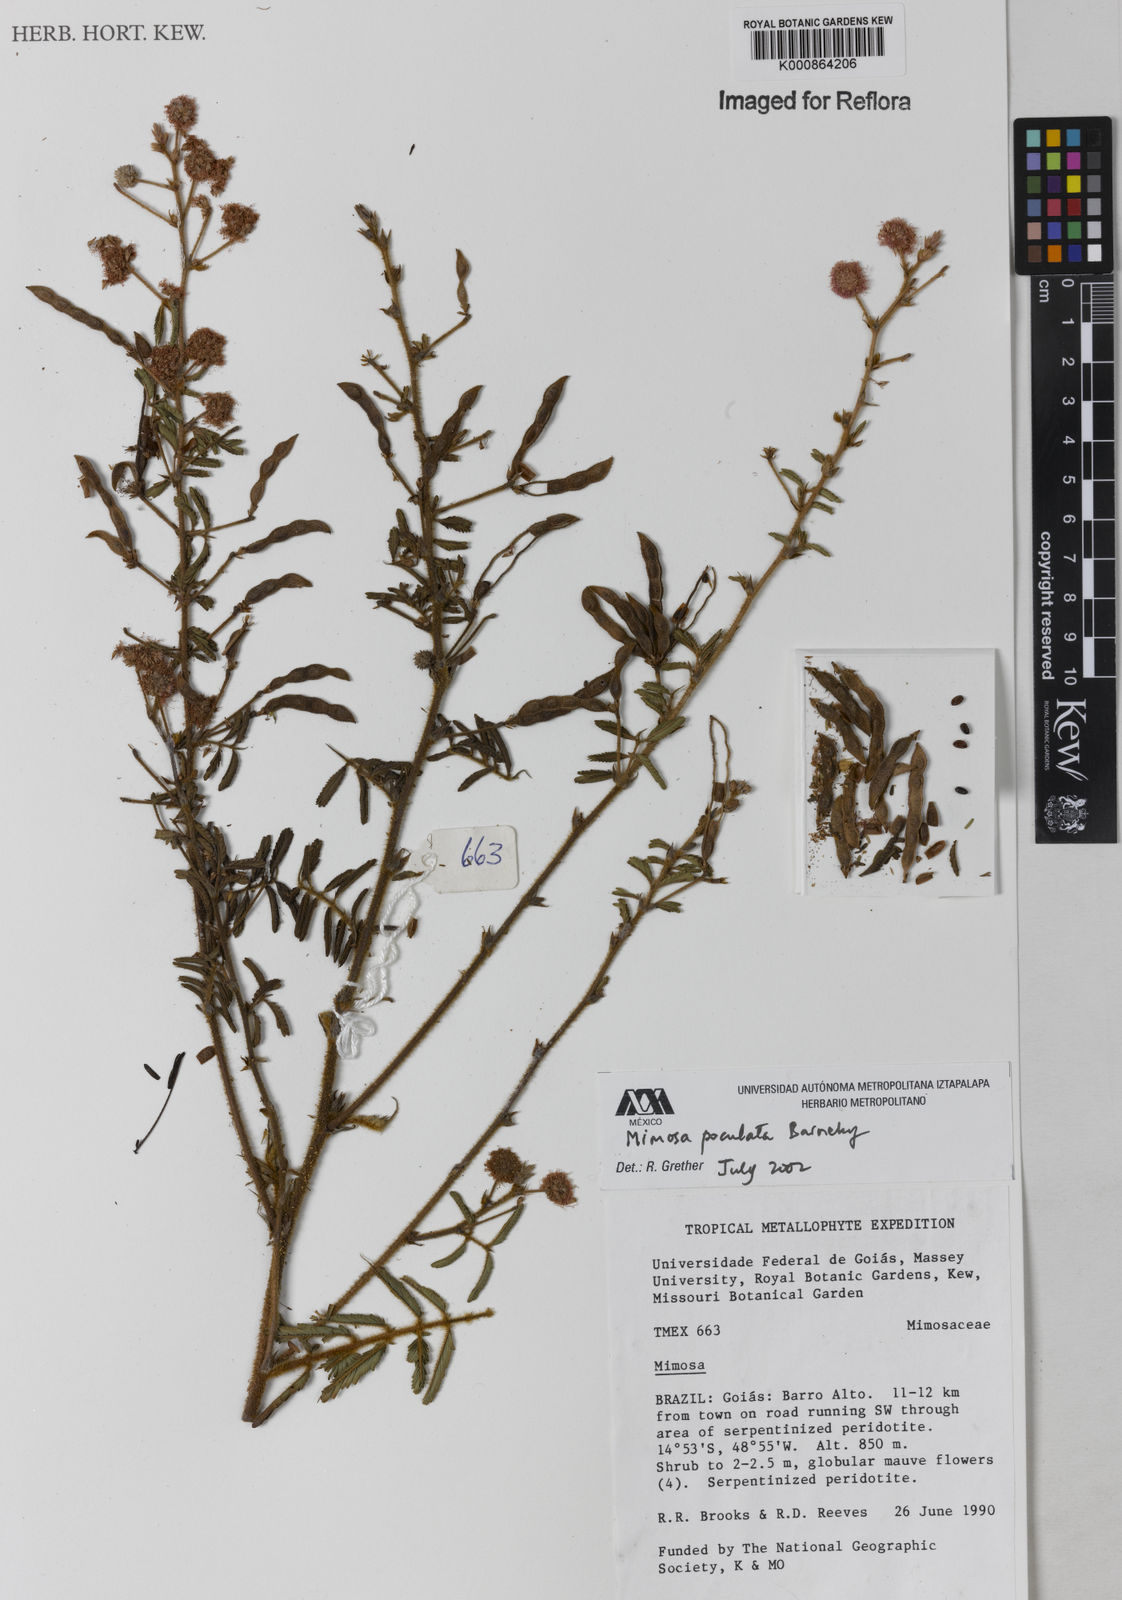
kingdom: Plantae
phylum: Tracheophyta
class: Magnoliopsida
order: Fabales
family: Fabaceae
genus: Mimosa
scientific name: Mimosa poculata
